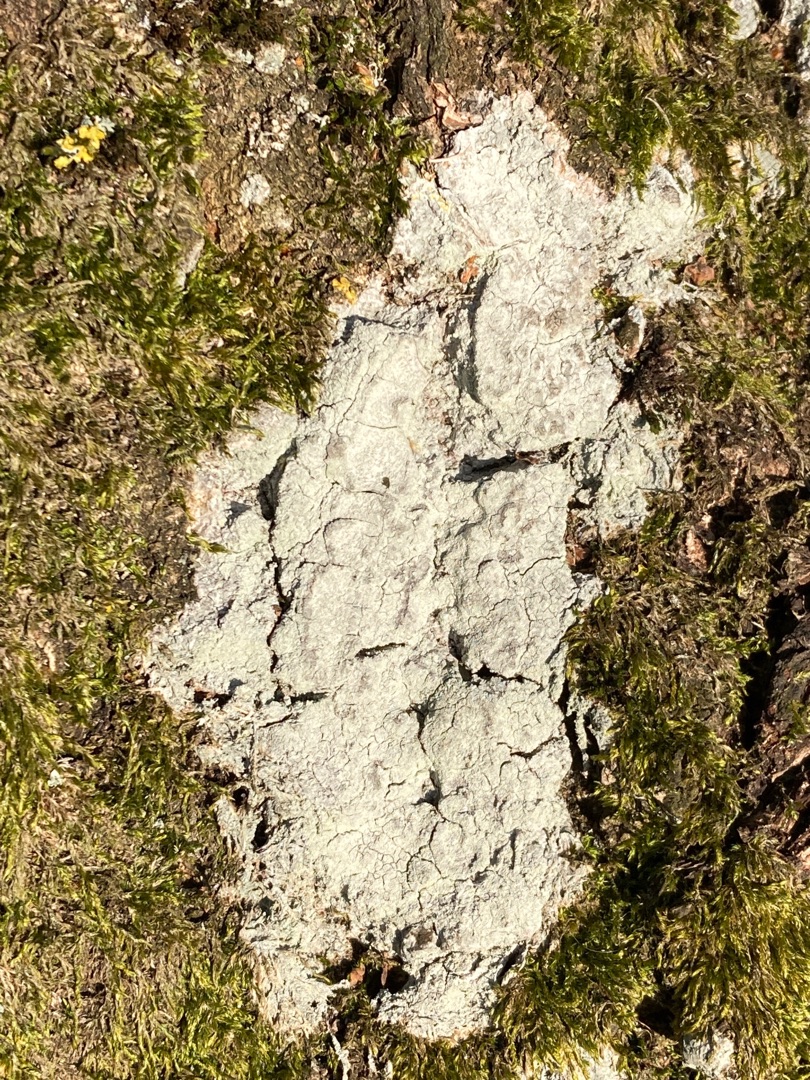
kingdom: Fungi
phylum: Ascomycota
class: Lecanoromycetes
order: Ostropales
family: Phlyctidaceae
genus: Phlyctis
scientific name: Phlyctis argena
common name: Almindelig sølvlav
